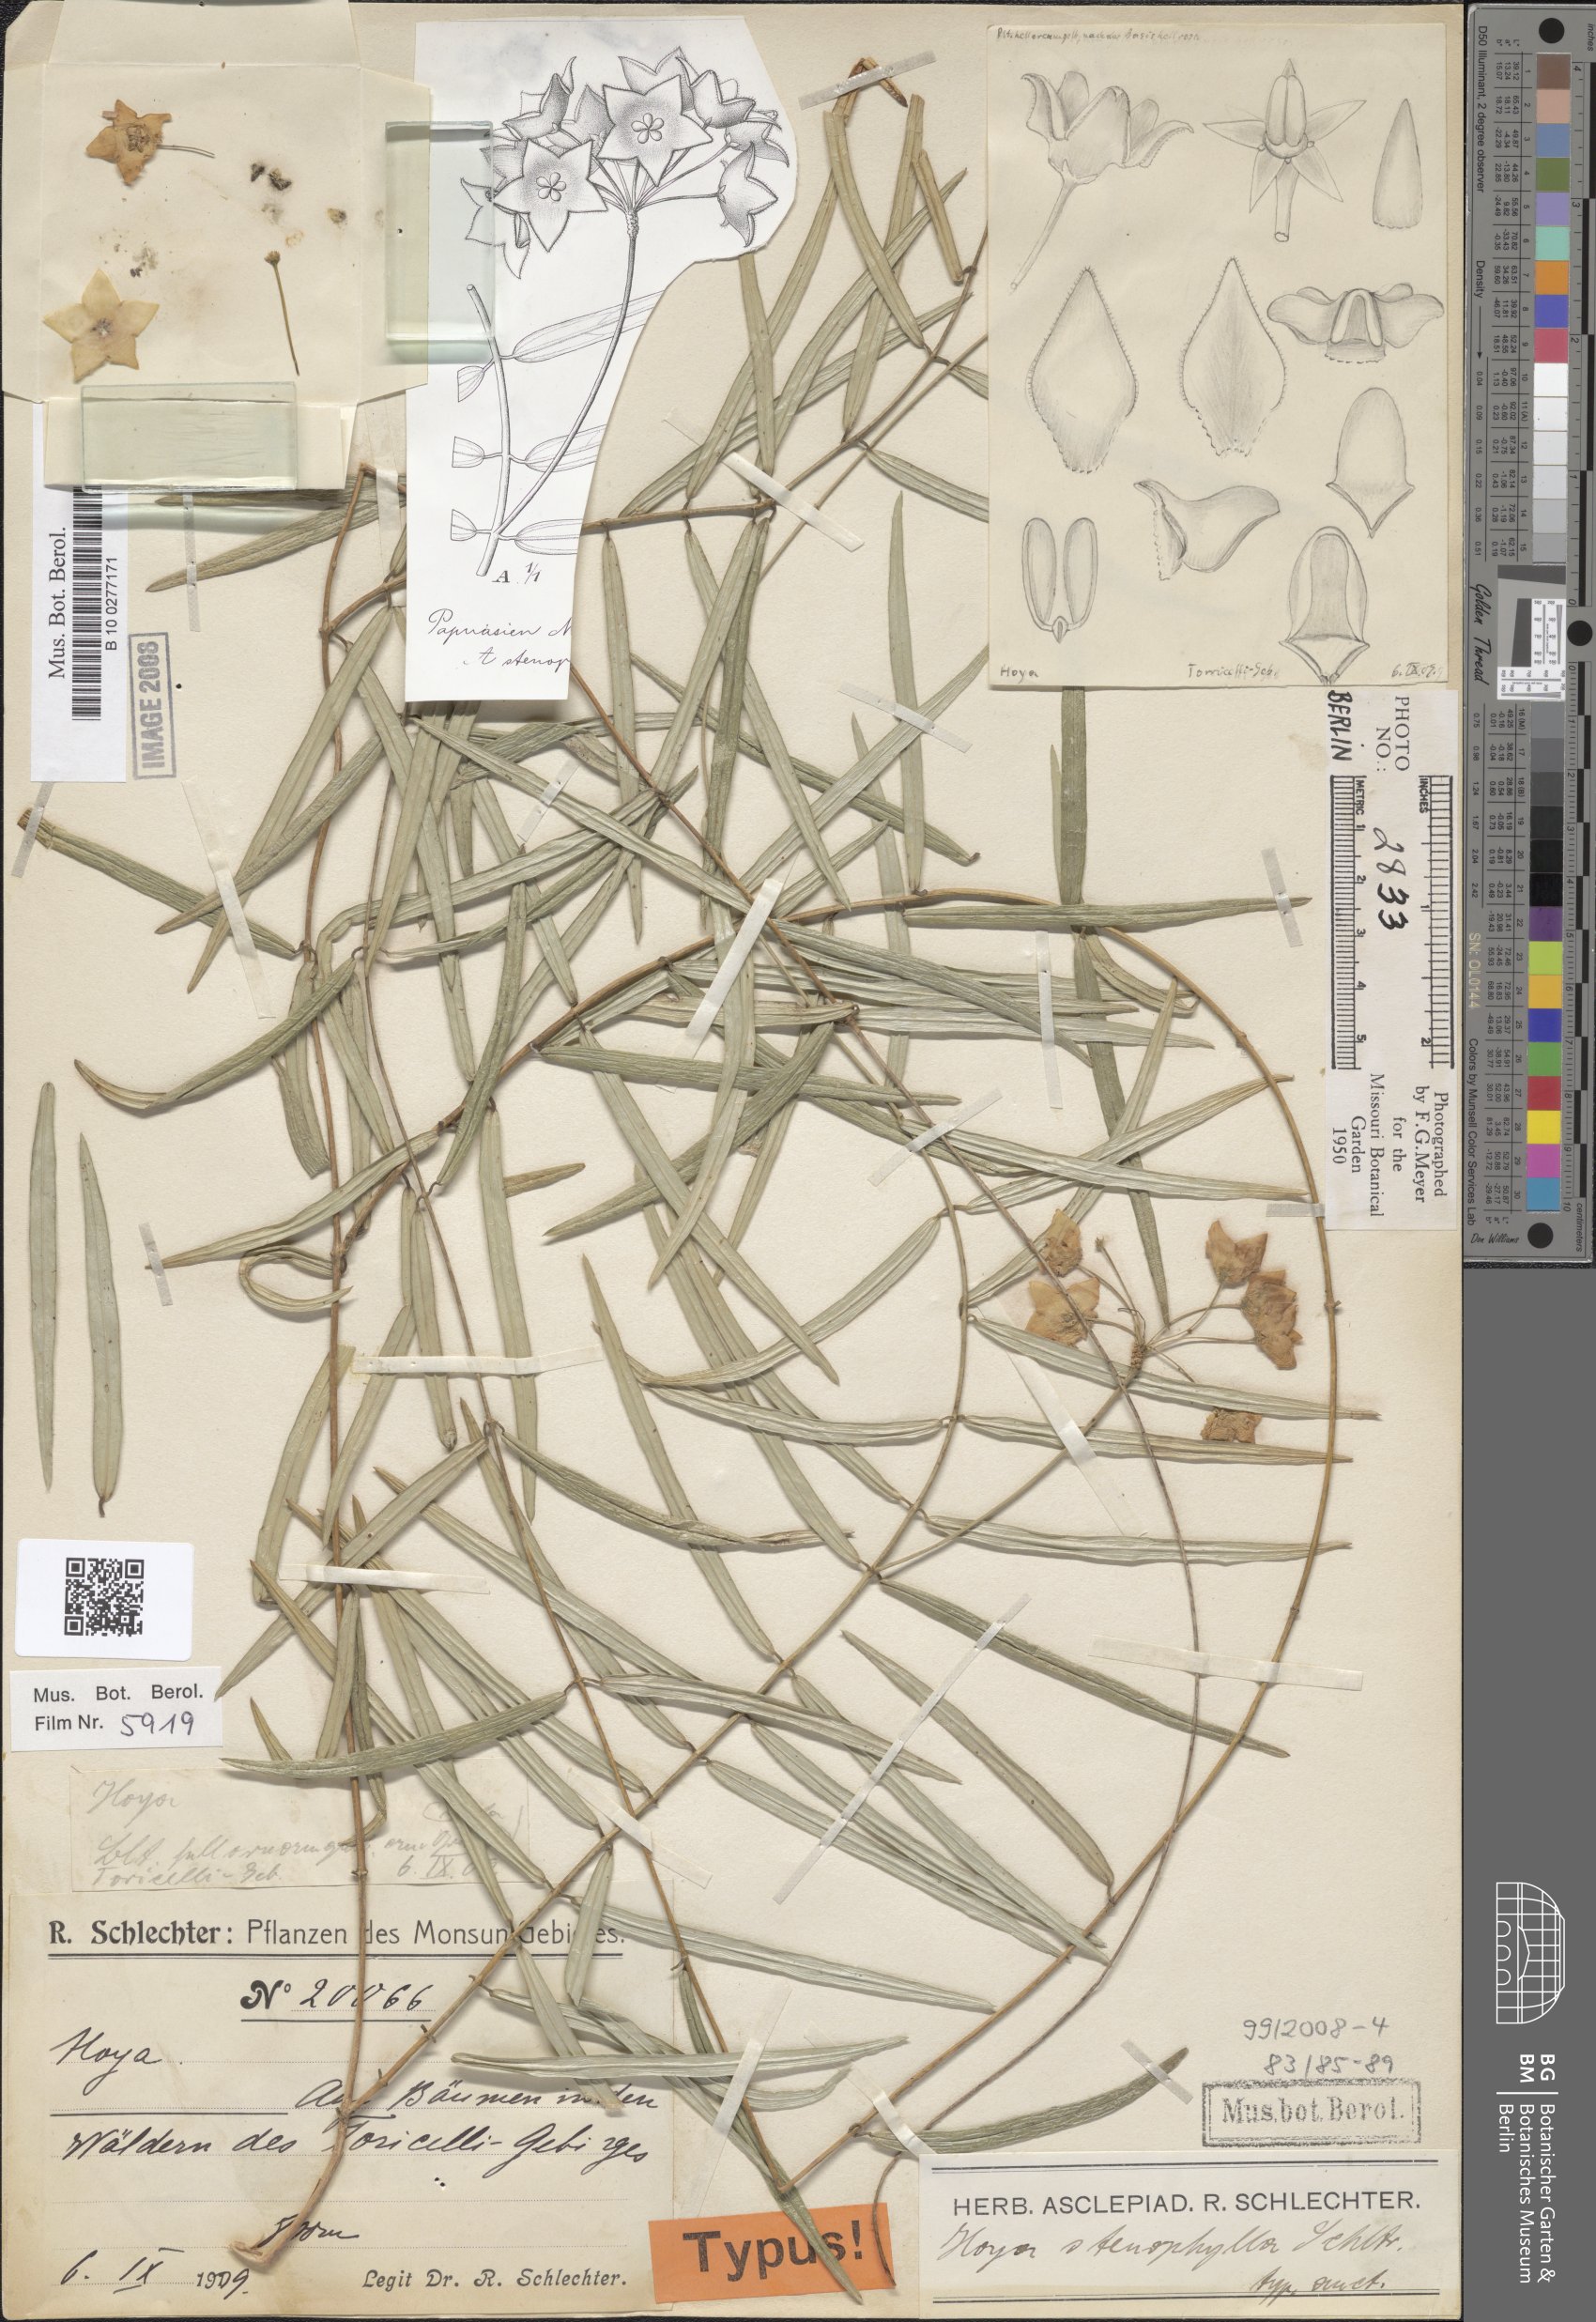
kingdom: Plantae
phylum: Tracheophyta
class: Magnoliopsida
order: Gentianales
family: Apocynaceae
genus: Hoya
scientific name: Hoya stenophylla
